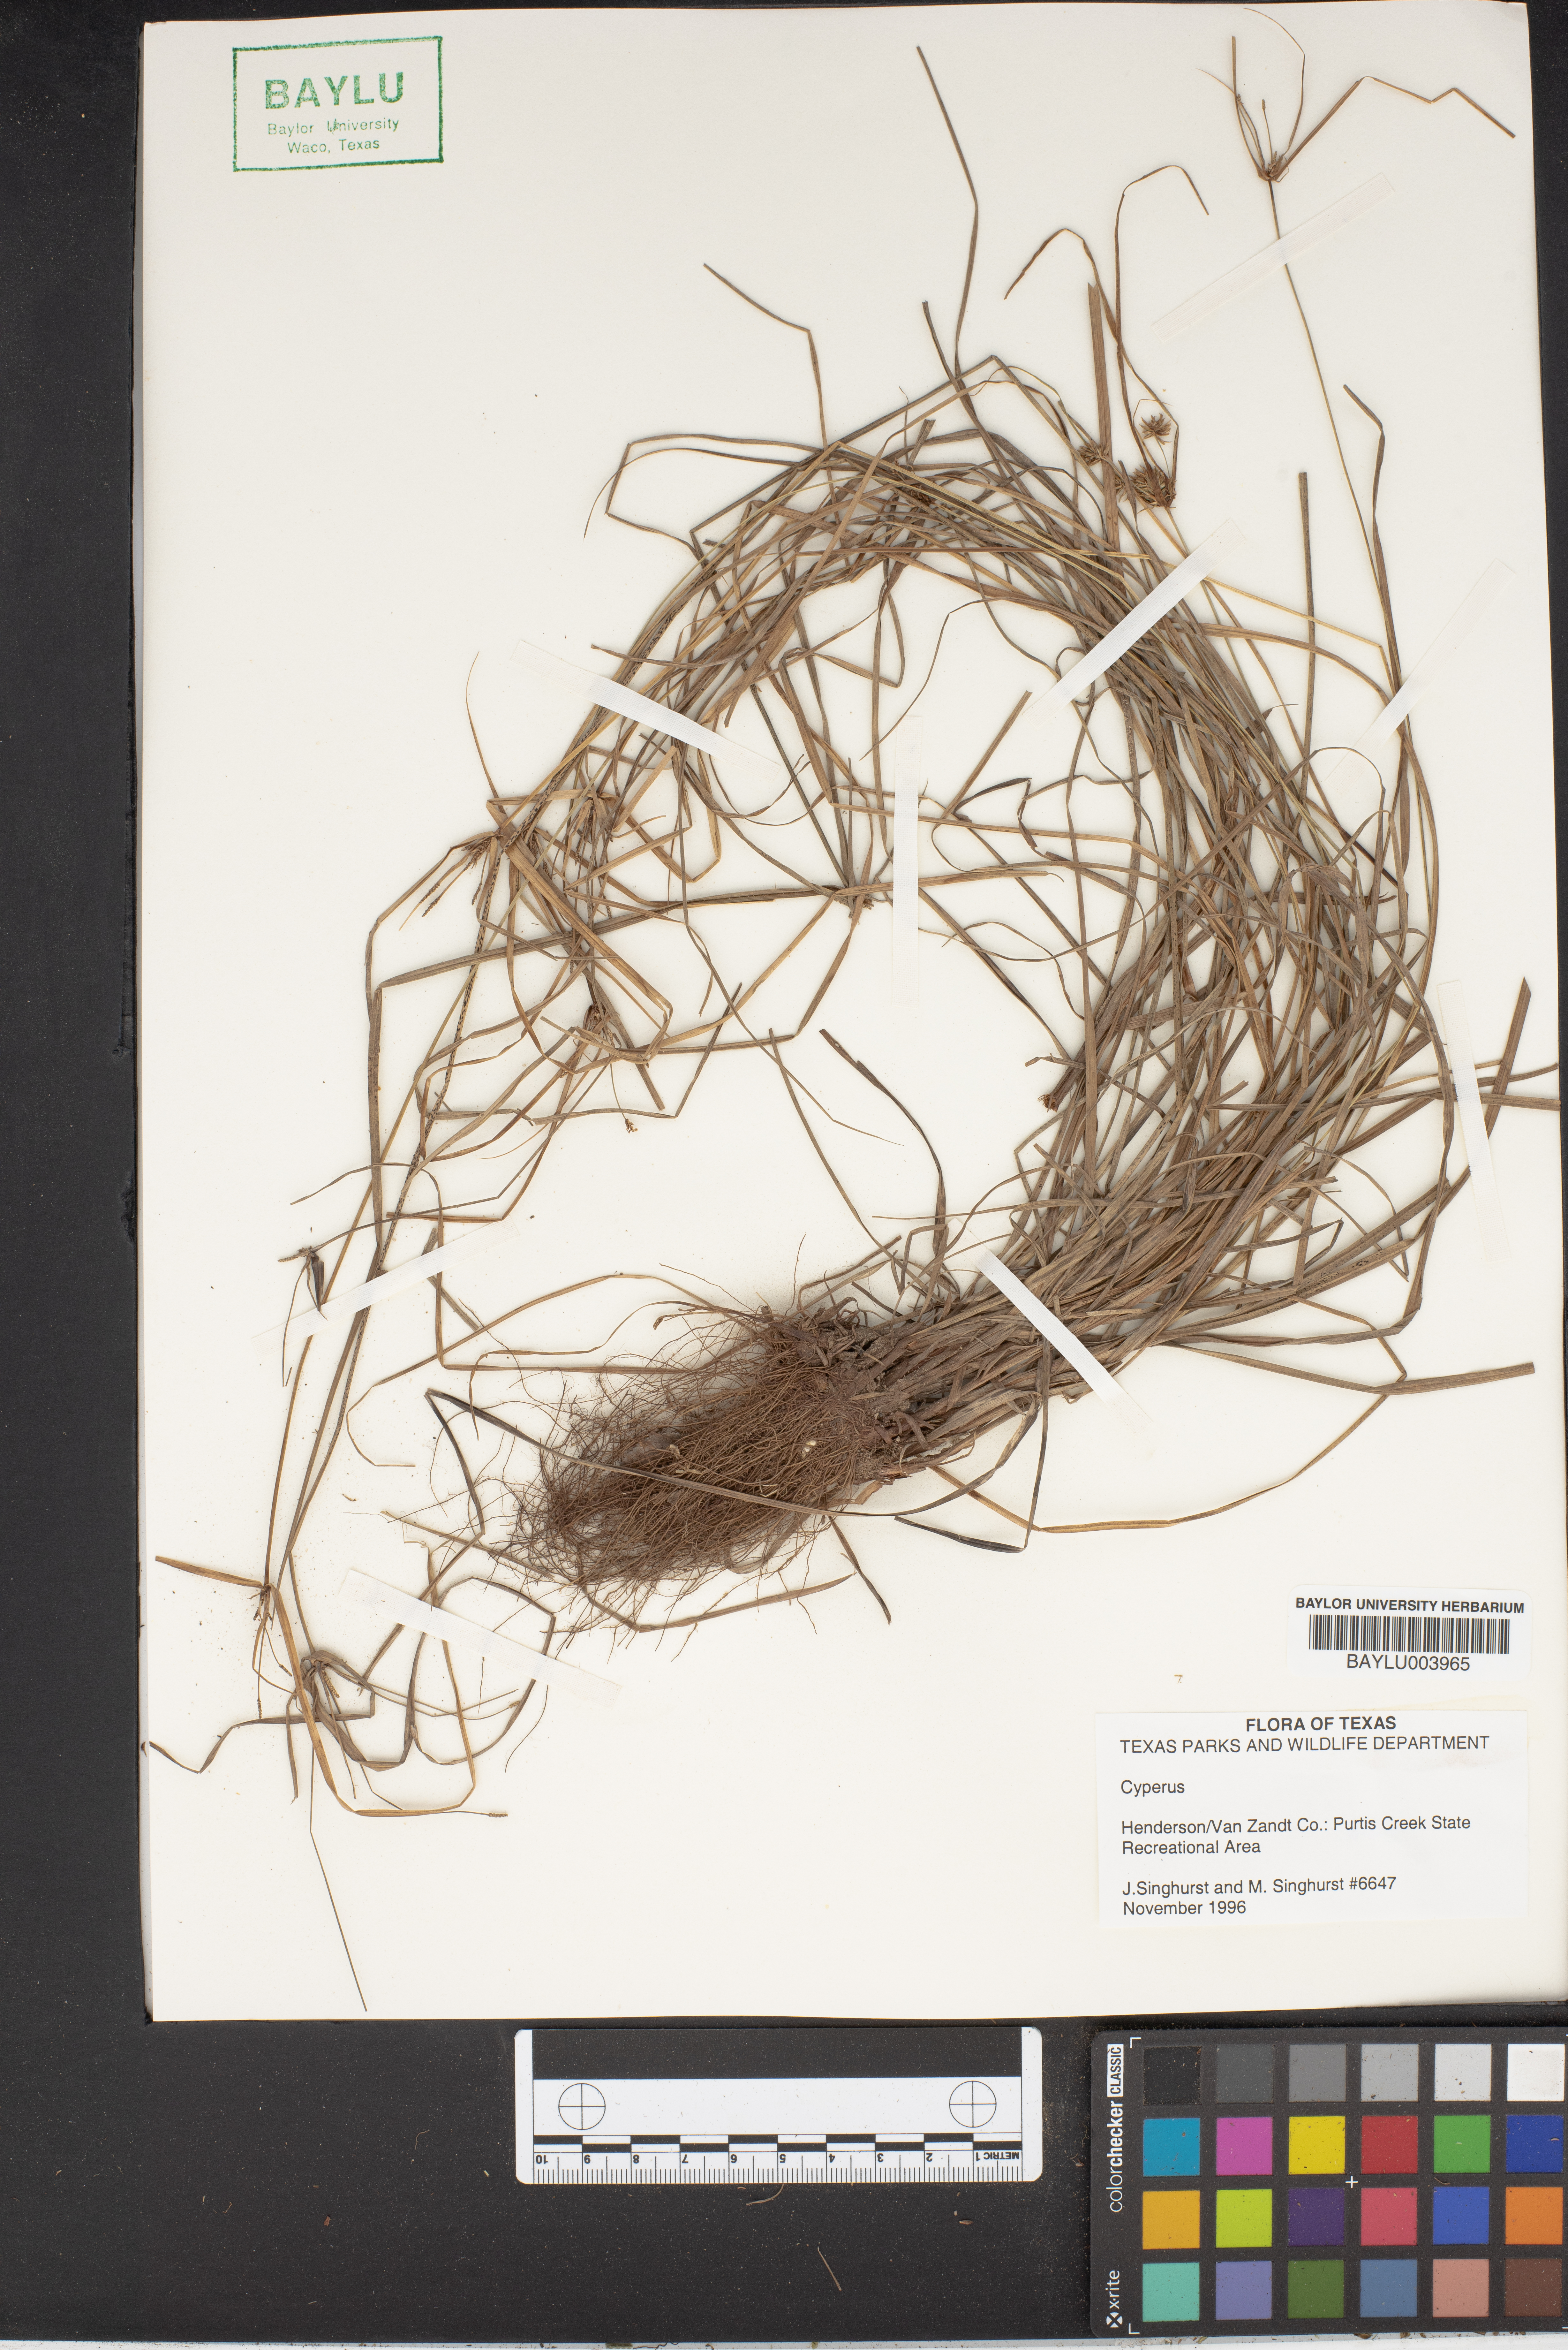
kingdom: Plantae
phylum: Tracheophyta
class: Liliopsida
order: Poales
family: Cyperaceae
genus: Cyperus
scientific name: Cyperus
